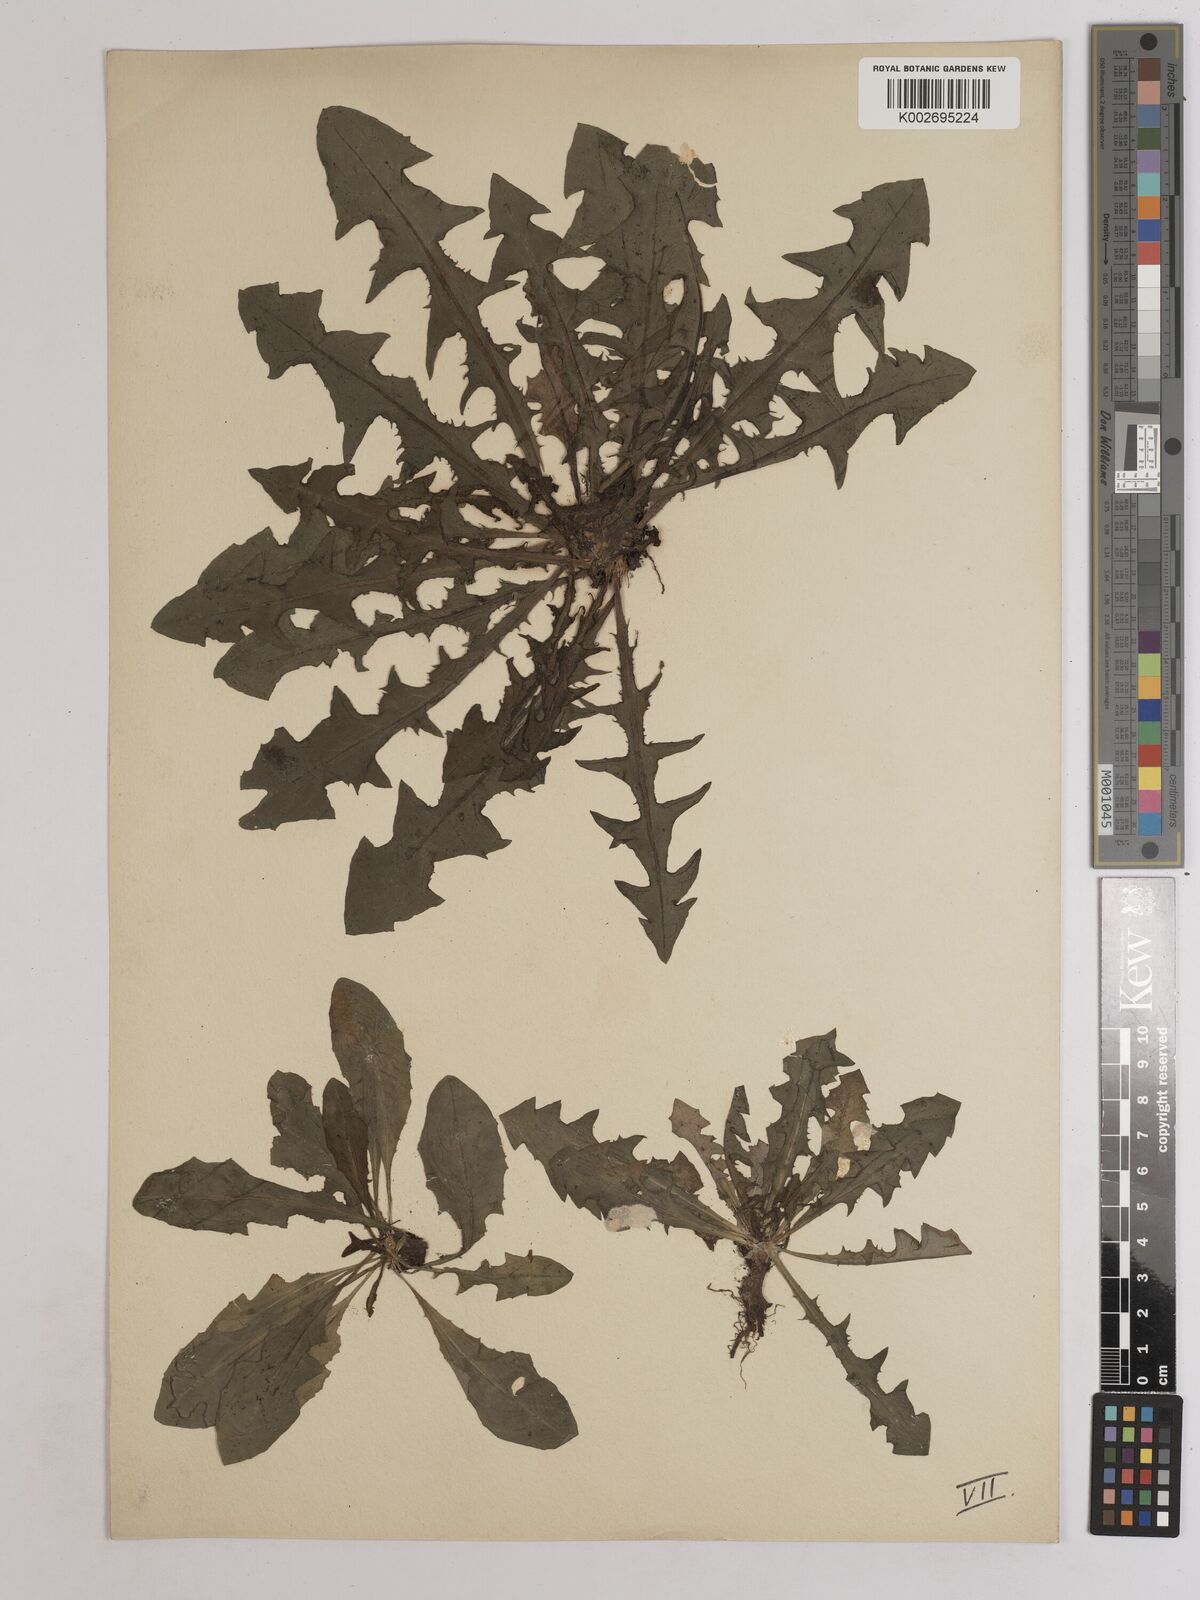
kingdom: Plantae
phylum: Tracheophyta
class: Magnoliopsida
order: Asterales
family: Asteraceae
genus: Taraxacum
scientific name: Taraxacum officinale
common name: Common dandelion
